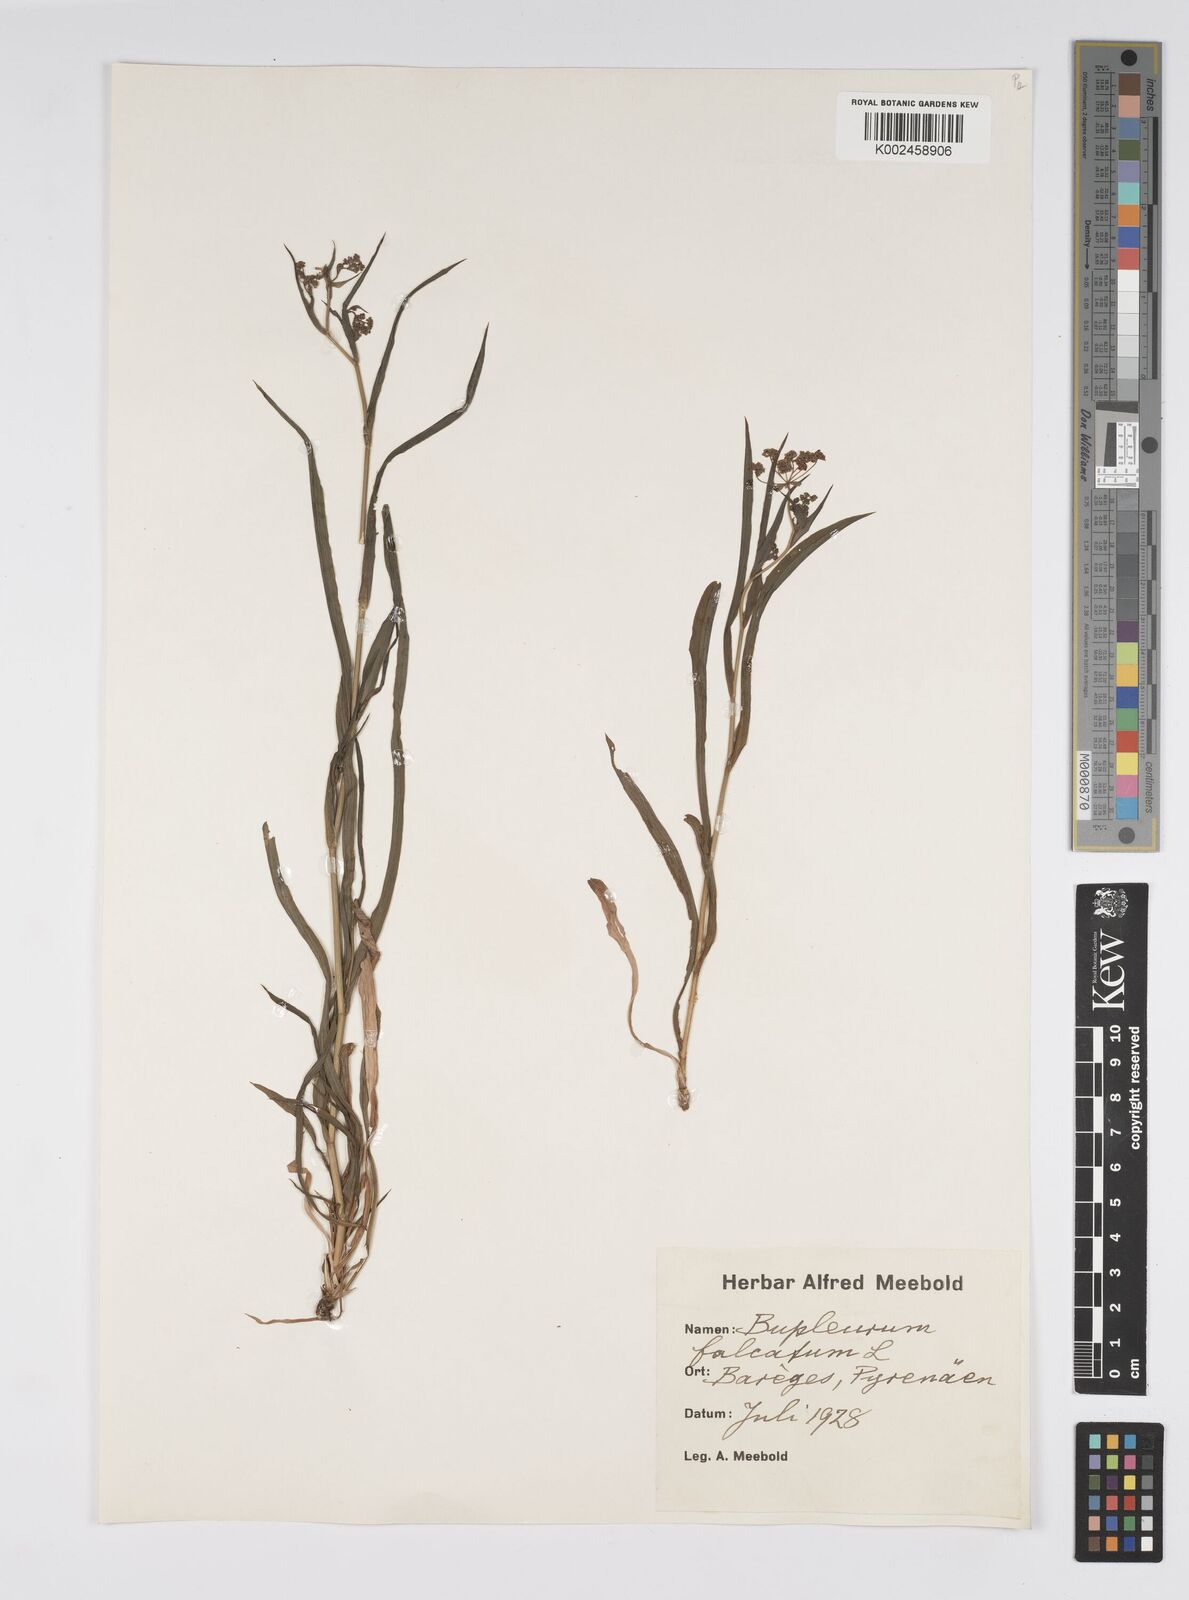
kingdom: Plantae
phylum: Tracheophyta
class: Magnoliopsida
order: Apiales
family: Apiaceae
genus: Bupleurum
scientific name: Bupleurum falcatum
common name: Sickle-leaved hare's-ear
